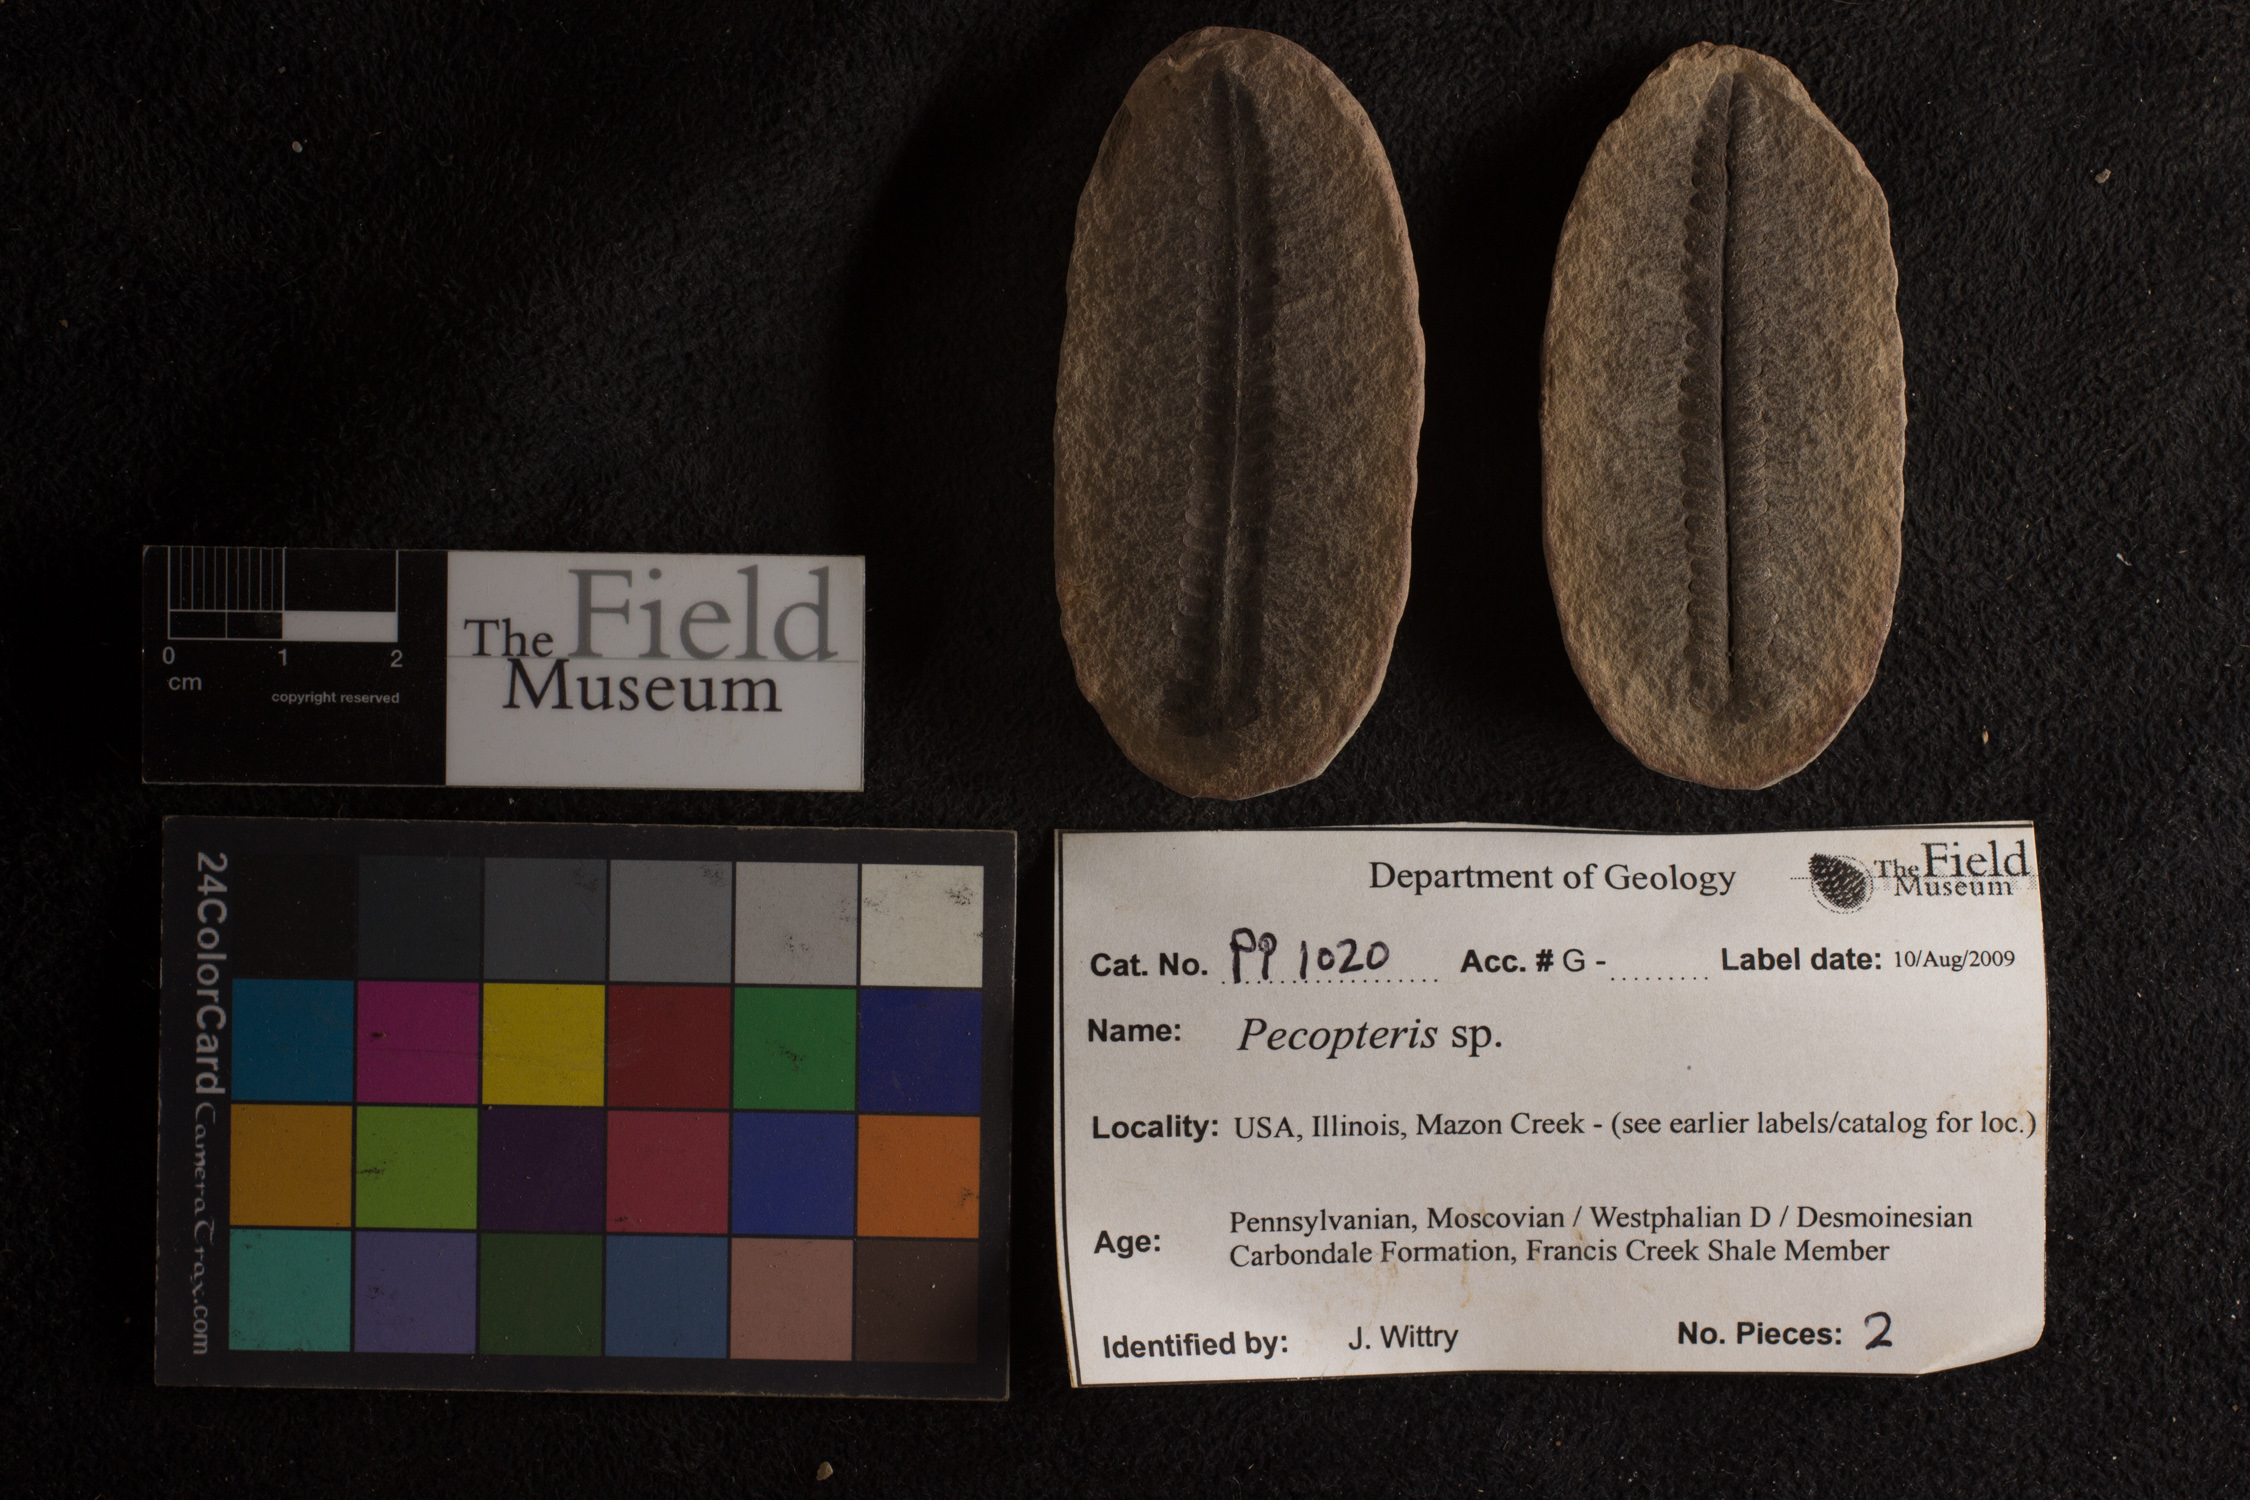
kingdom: Plantae
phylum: Tracheophyta
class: Polypodiopsida
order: Marattiales
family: Asterothecaceae
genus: Pecopteris
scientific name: Pecopteris
